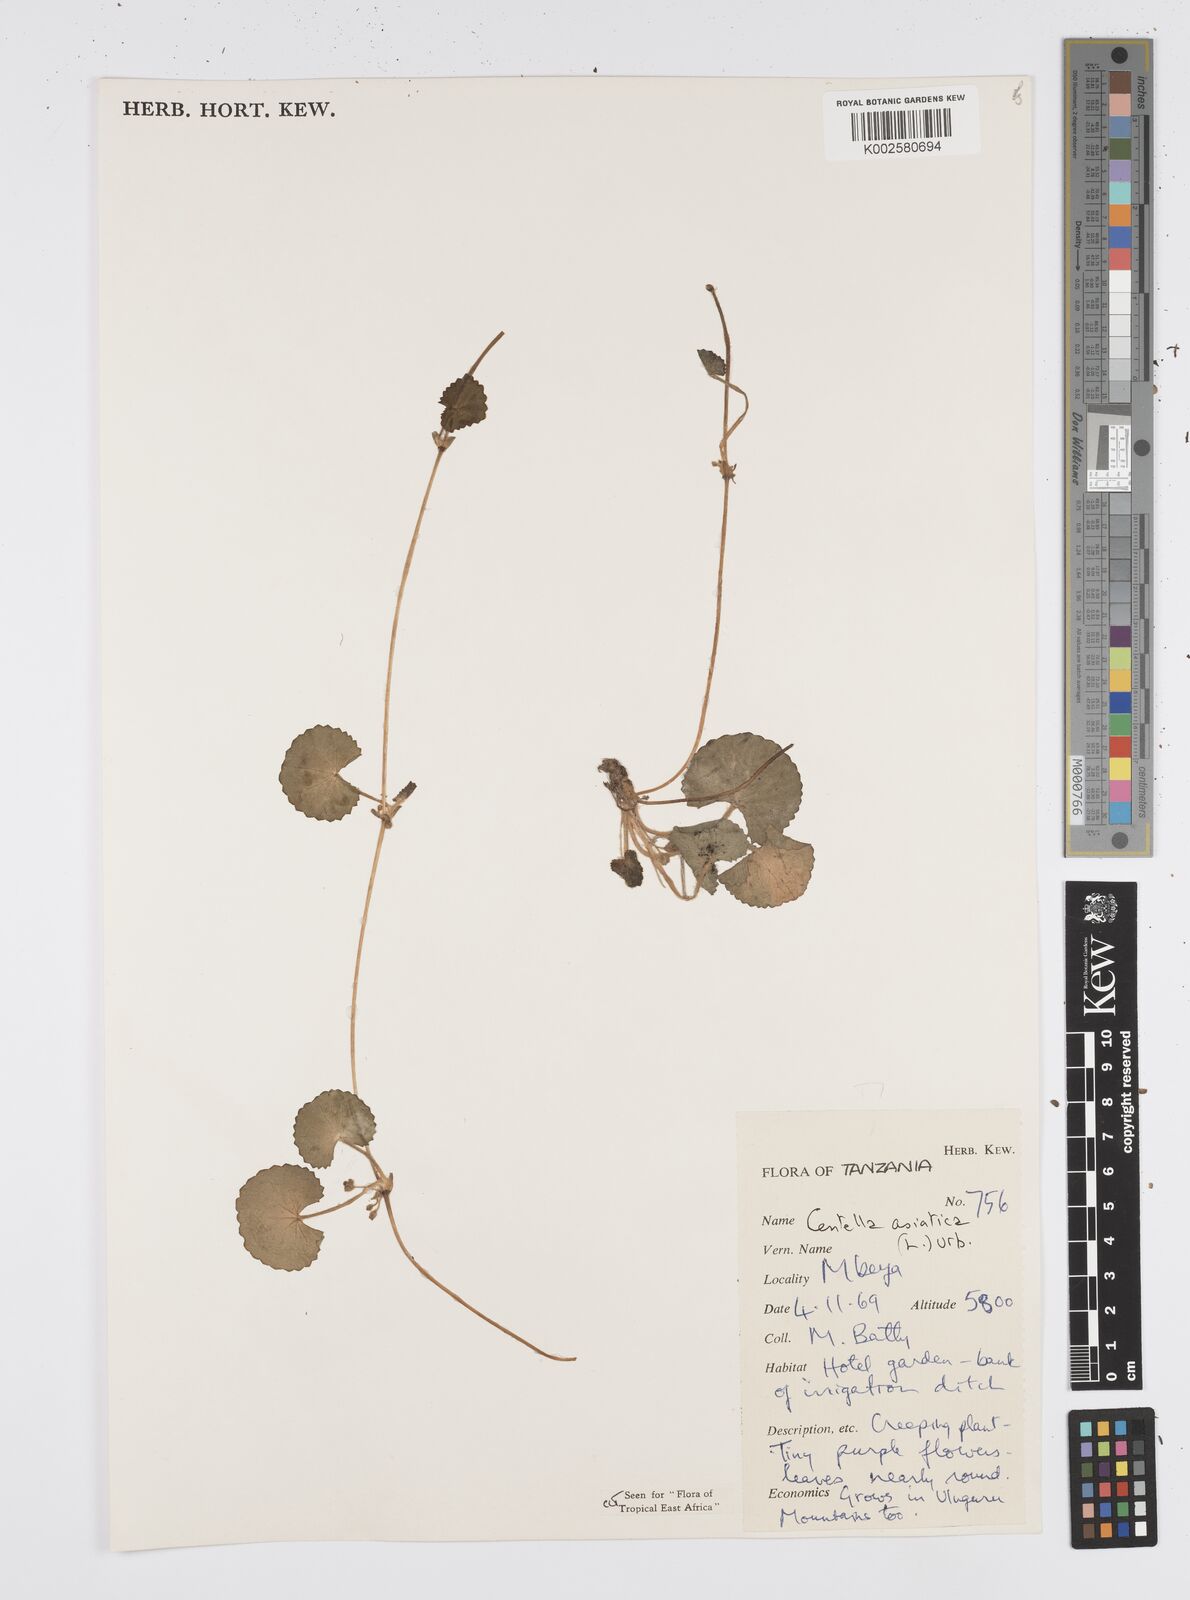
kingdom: Plantae
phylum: Tracheophyta
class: Magnoliopsida
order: Apiales
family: Apiaceae
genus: Centella
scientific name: Centella asiatica
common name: Spadeleaf
